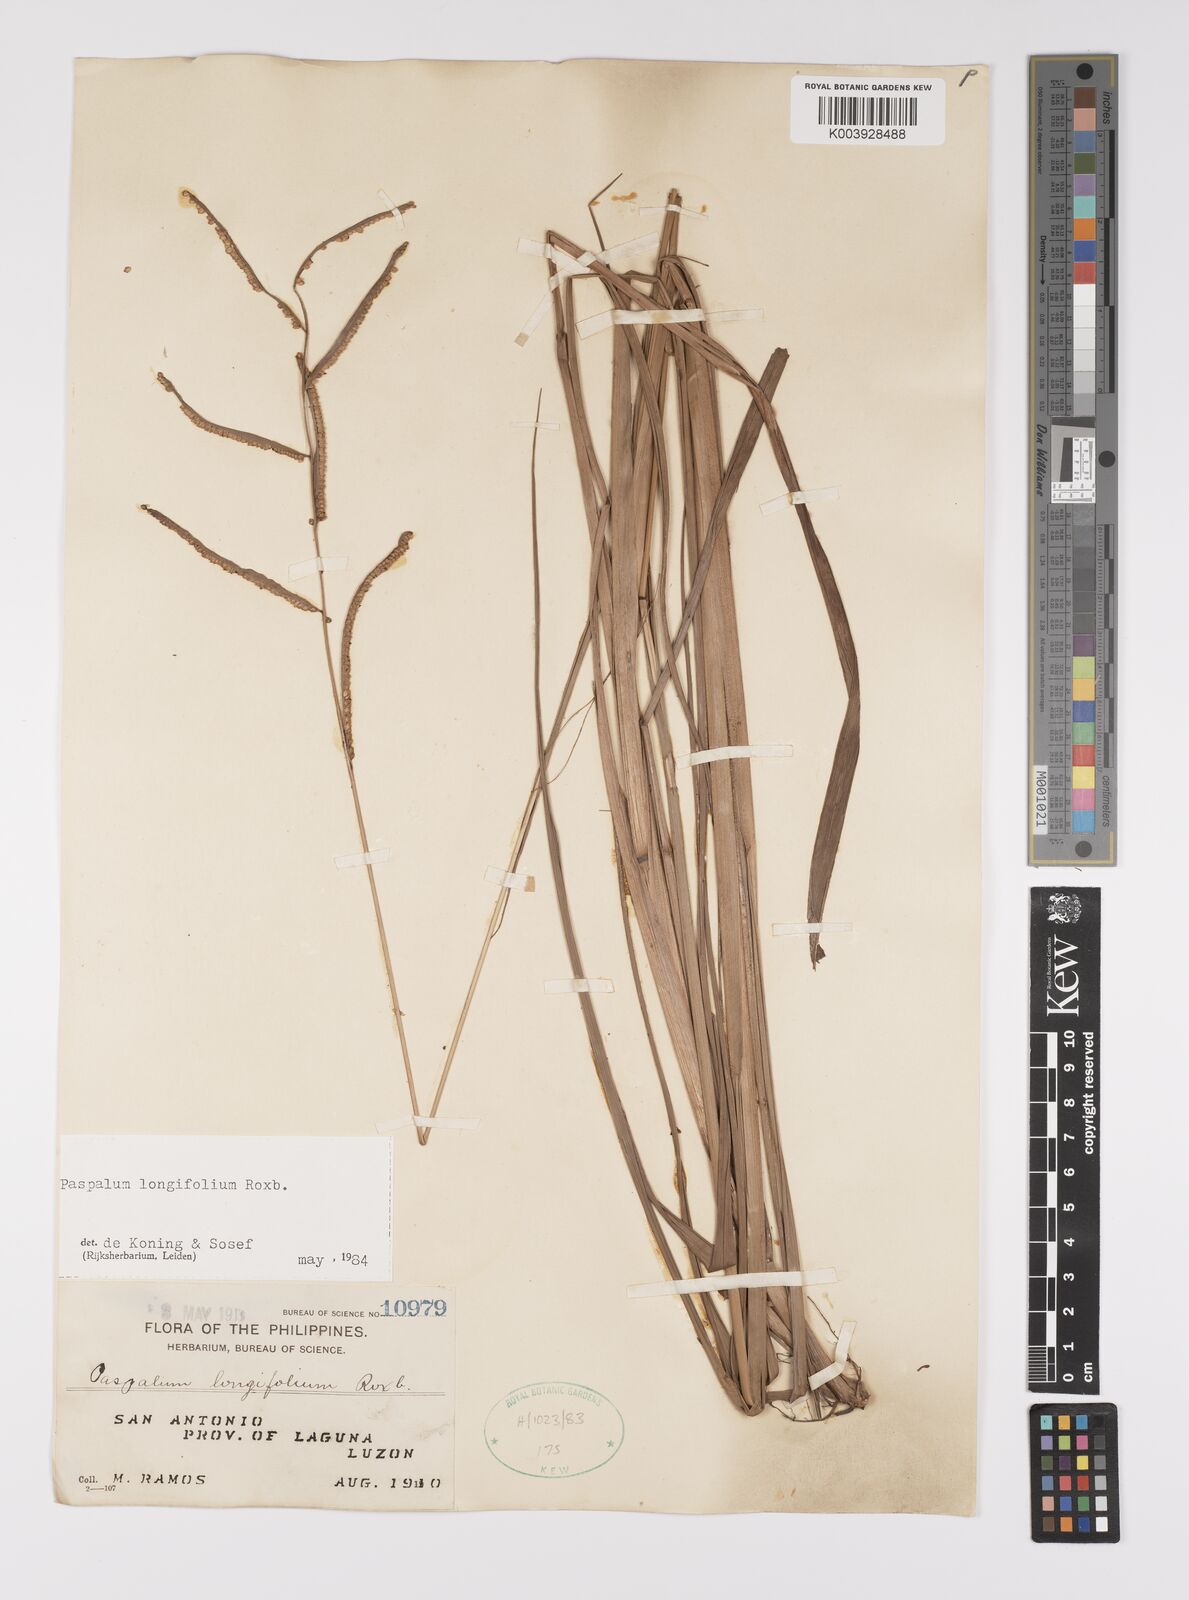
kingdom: Plantae
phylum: Tracheophyta
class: Liliopsida
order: Poales
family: Poaceae
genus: Paspalum
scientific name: Paspalum sumatrense
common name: Long-leaved paspalum
